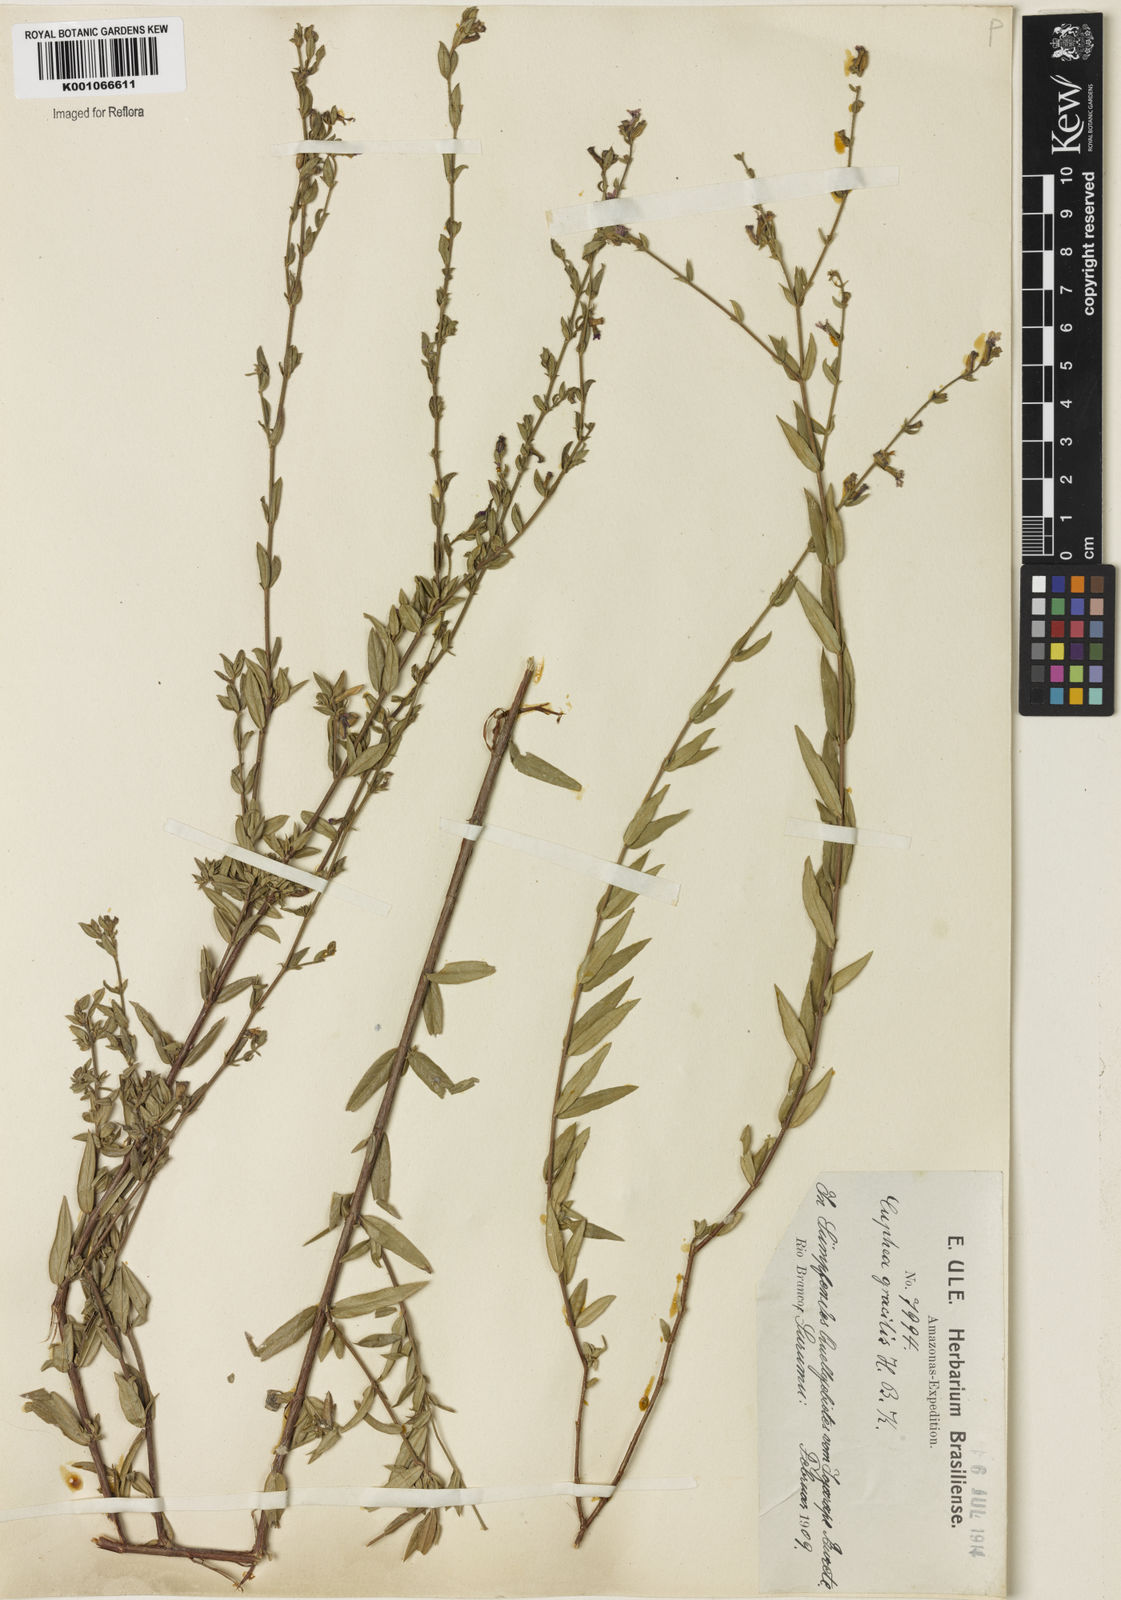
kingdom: Plantae
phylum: Tracheophyta
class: Magnoliopsida
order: Myrtales
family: Lythraceae
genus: Cuphea
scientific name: Cuphea antisyphilitica
